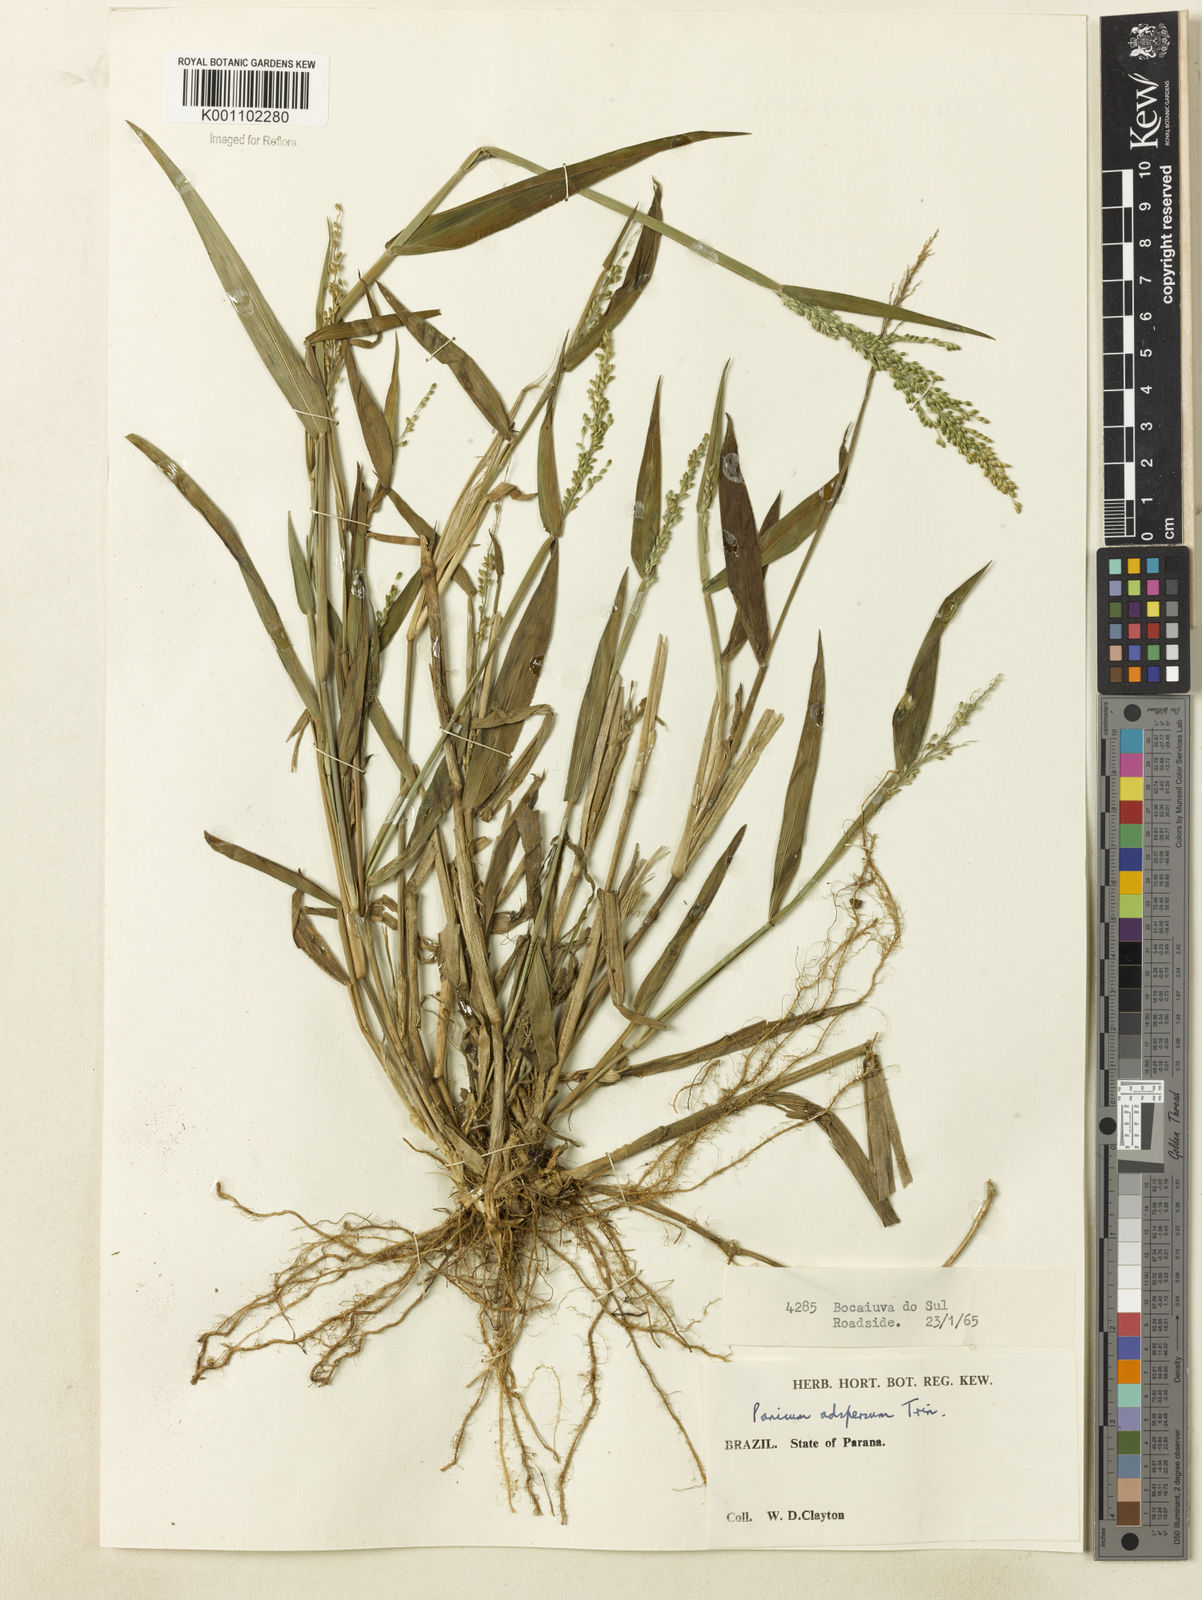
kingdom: Plantae
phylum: Tracheophyta
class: Liliopsida
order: Poales
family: Poaceae
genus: Dichanthelium
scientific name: Dichanthelium superatum
